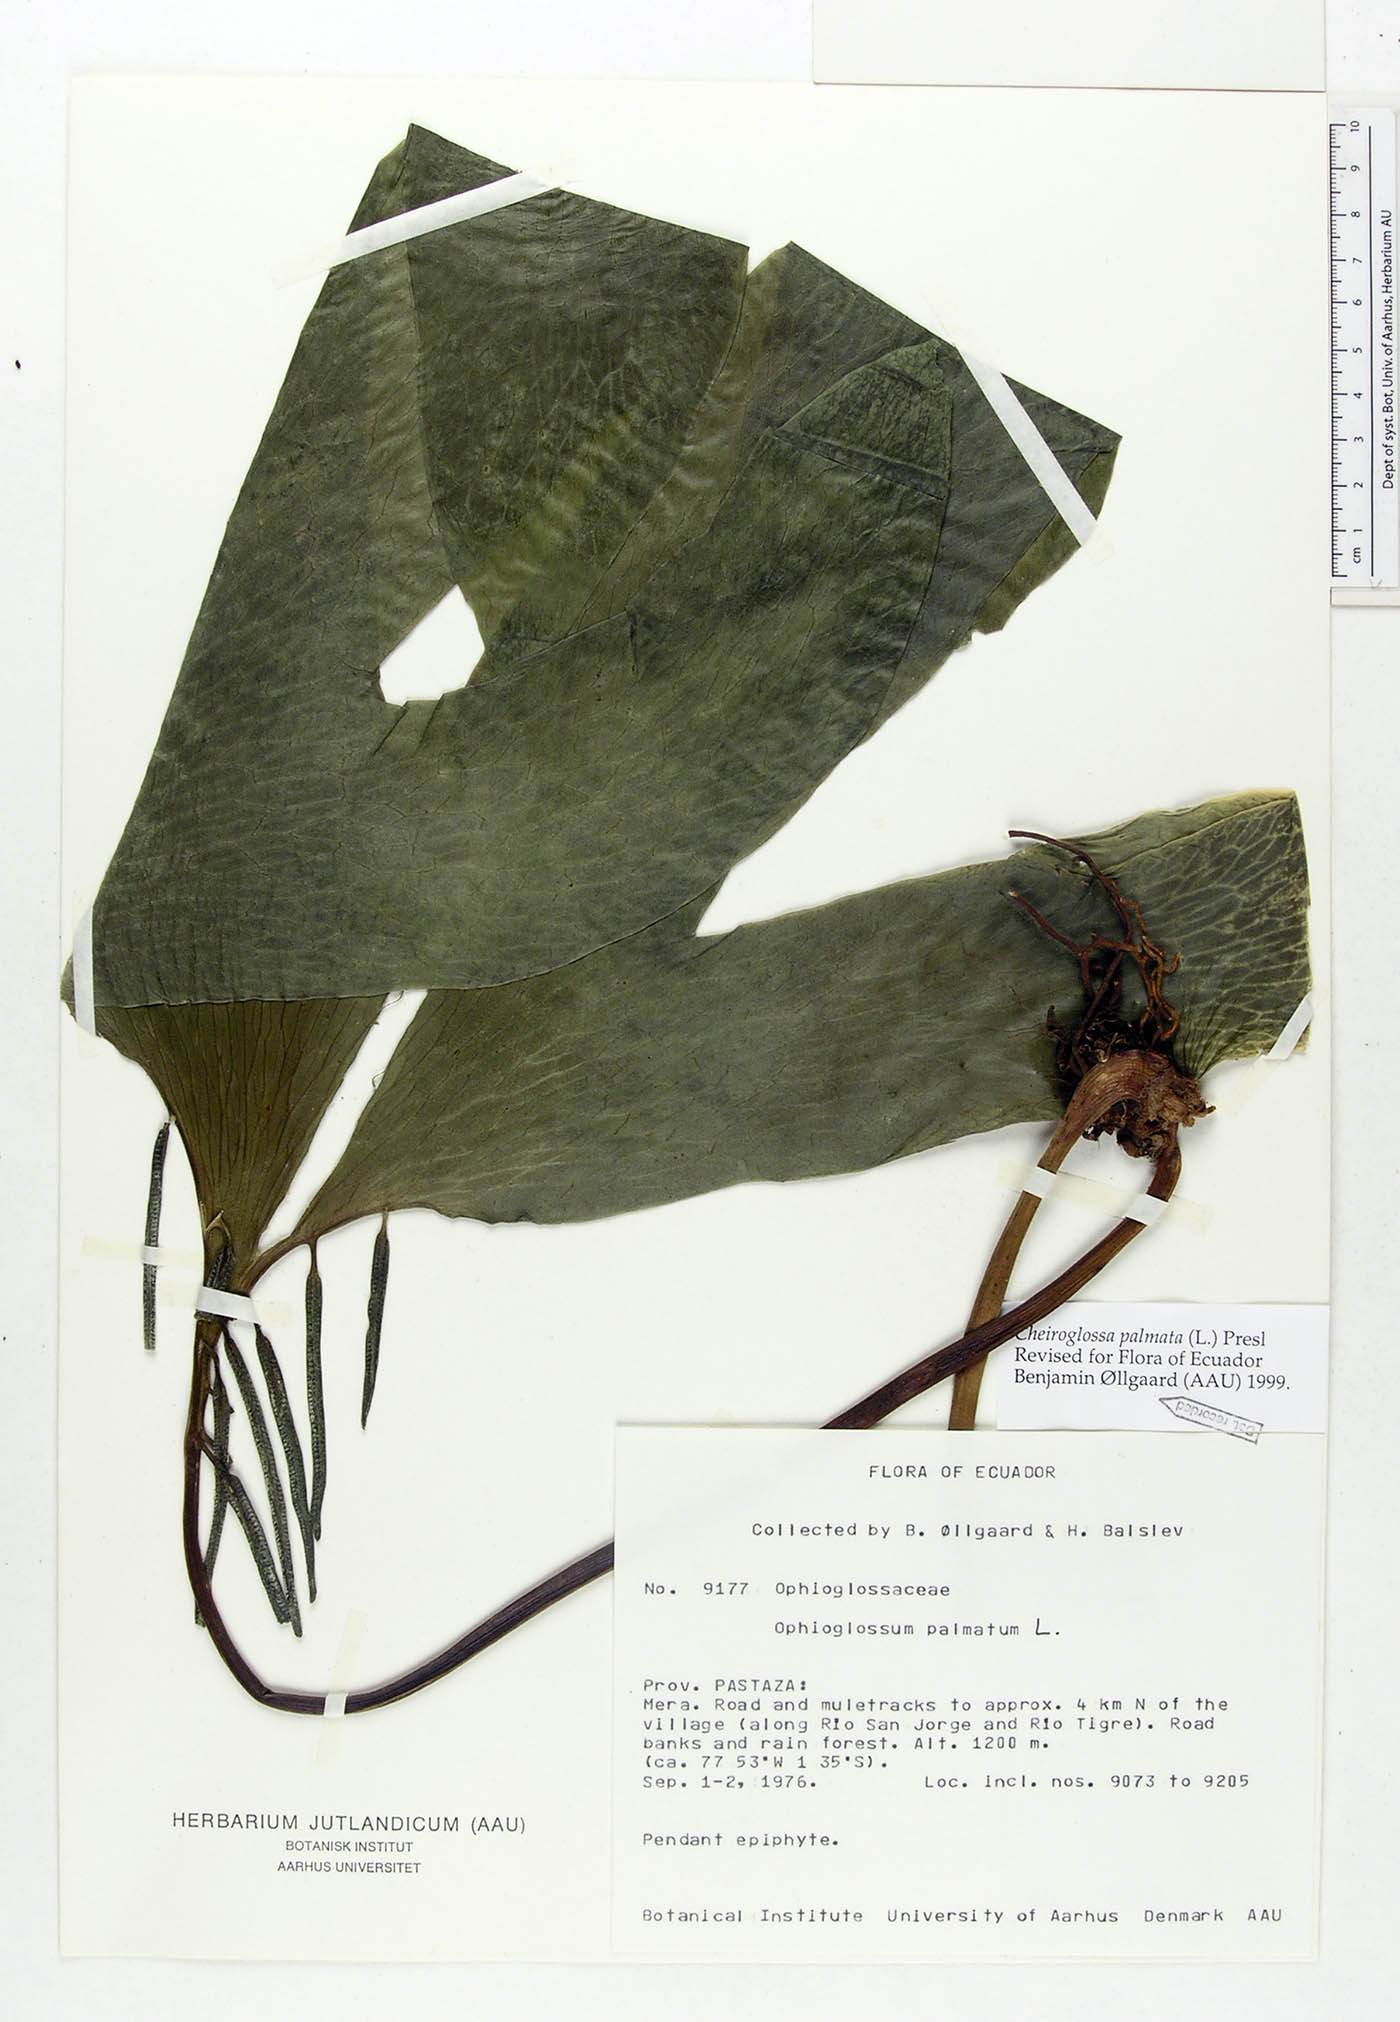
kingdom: Plantae
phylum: Tracheophyta
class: Polypodiopsida
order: Ophioglossales
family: Ophioglossaceae
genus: Cheiroglossa
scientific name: Cheiroglossa palmata
